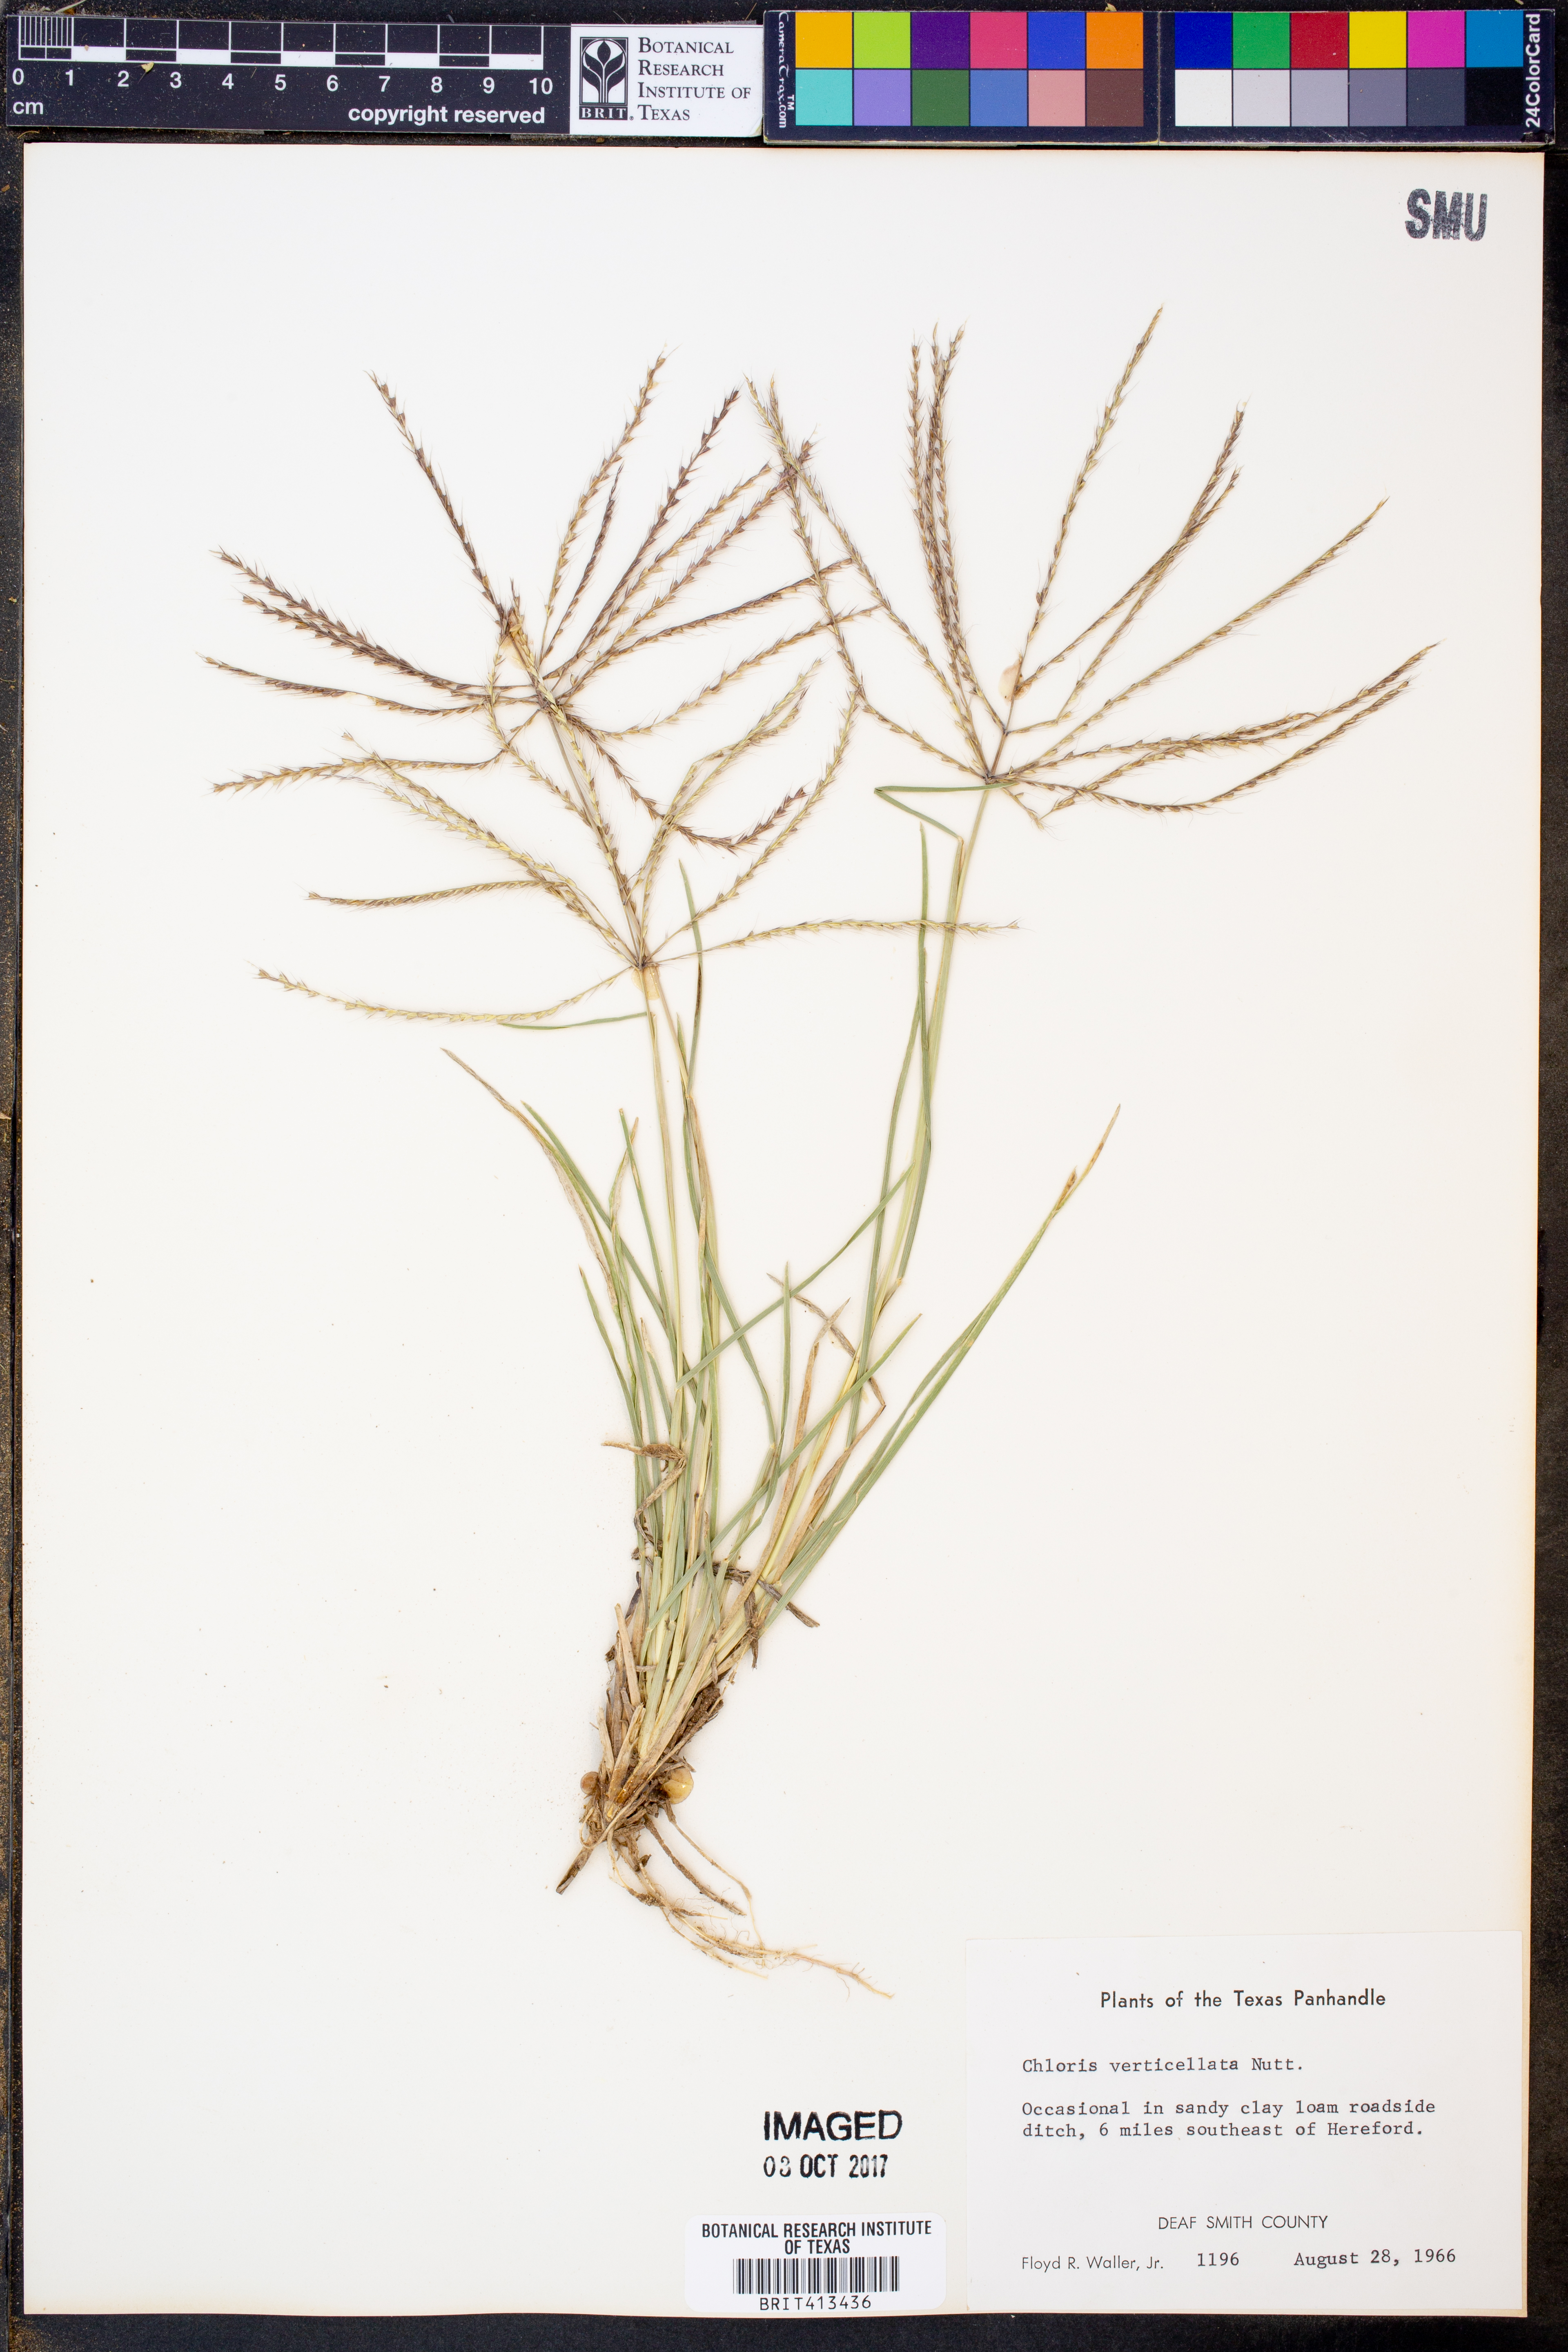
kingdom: Plantae
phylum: Tracheophyta
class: Liliopsida
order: Poales
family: Poaceae
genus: Chloris
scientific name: Chloris verticillata
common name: Tumble windmill grass
